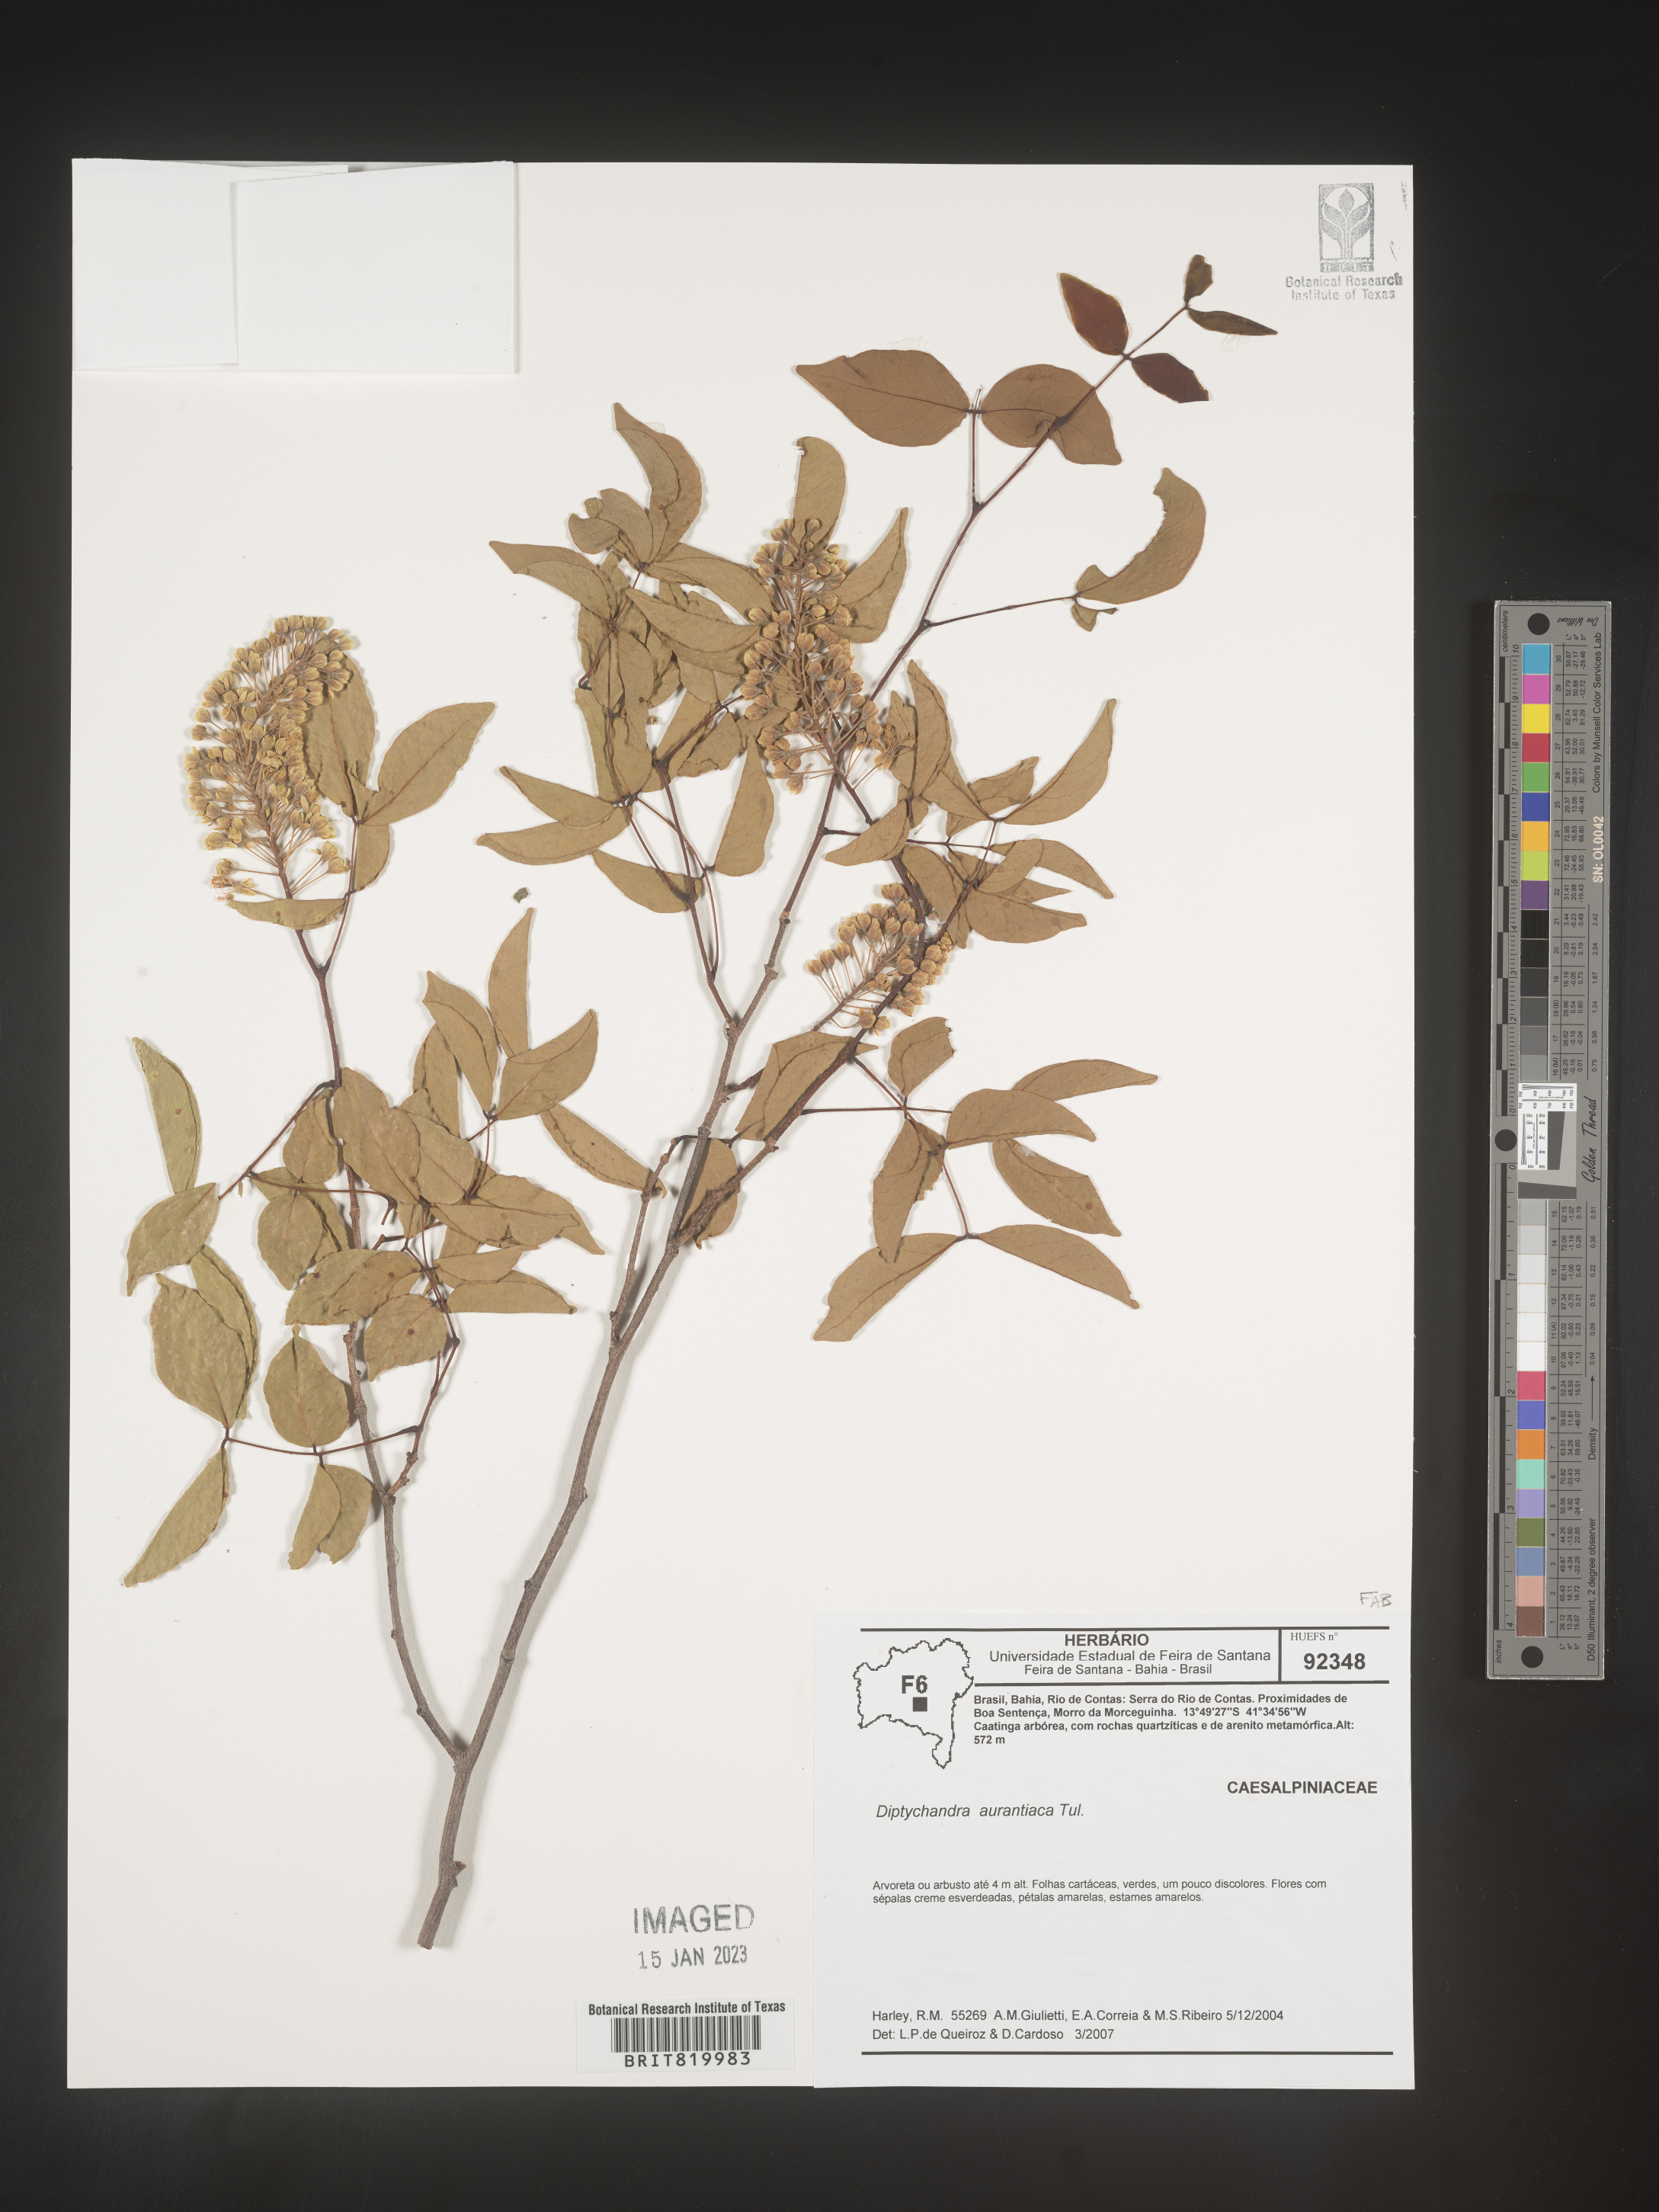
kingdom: Plantae
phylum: Tracheophyta
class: Magnoliopsida
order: Fabales
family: Fabaceae
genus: Diptychandra
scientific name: Diptychandra
